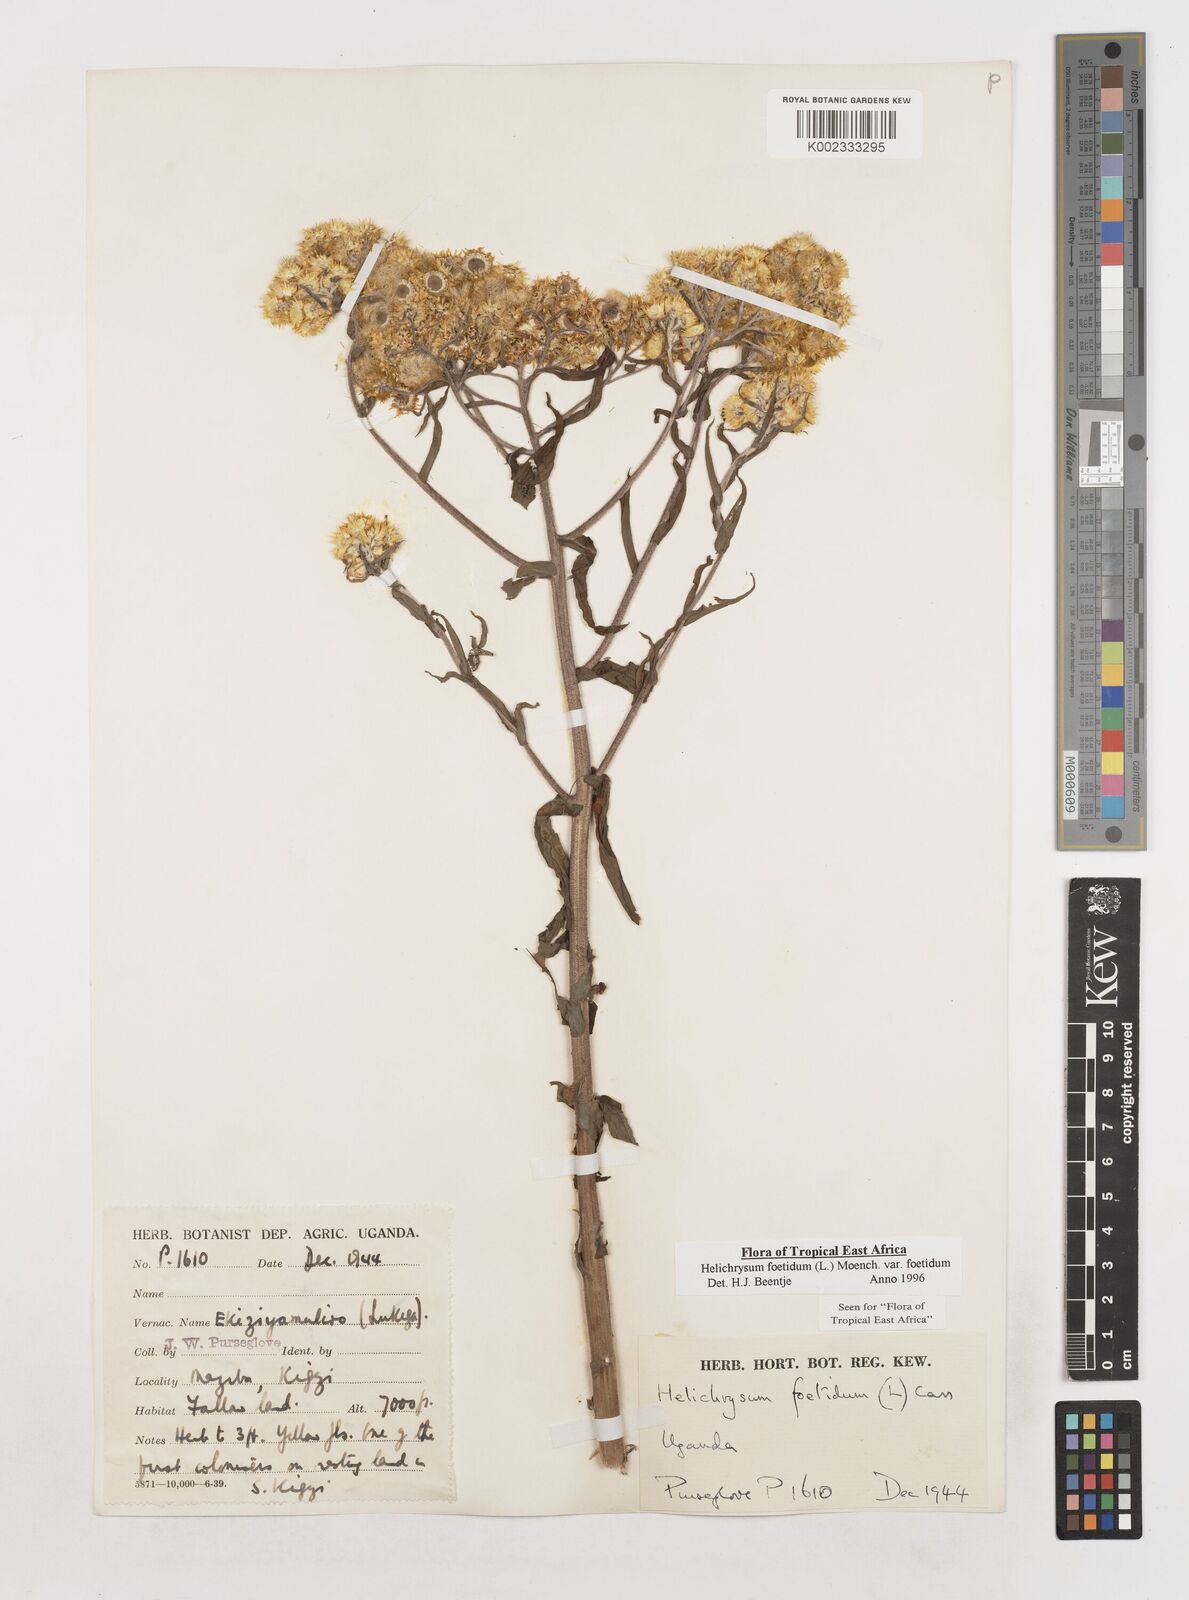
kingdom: Plantae
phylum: Tracheophyta
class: Magnoliopsida
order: Asterales
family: Asteraceae
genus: Helichrysum
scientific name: Helichrysum foetidum
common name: Stinking everlasting
